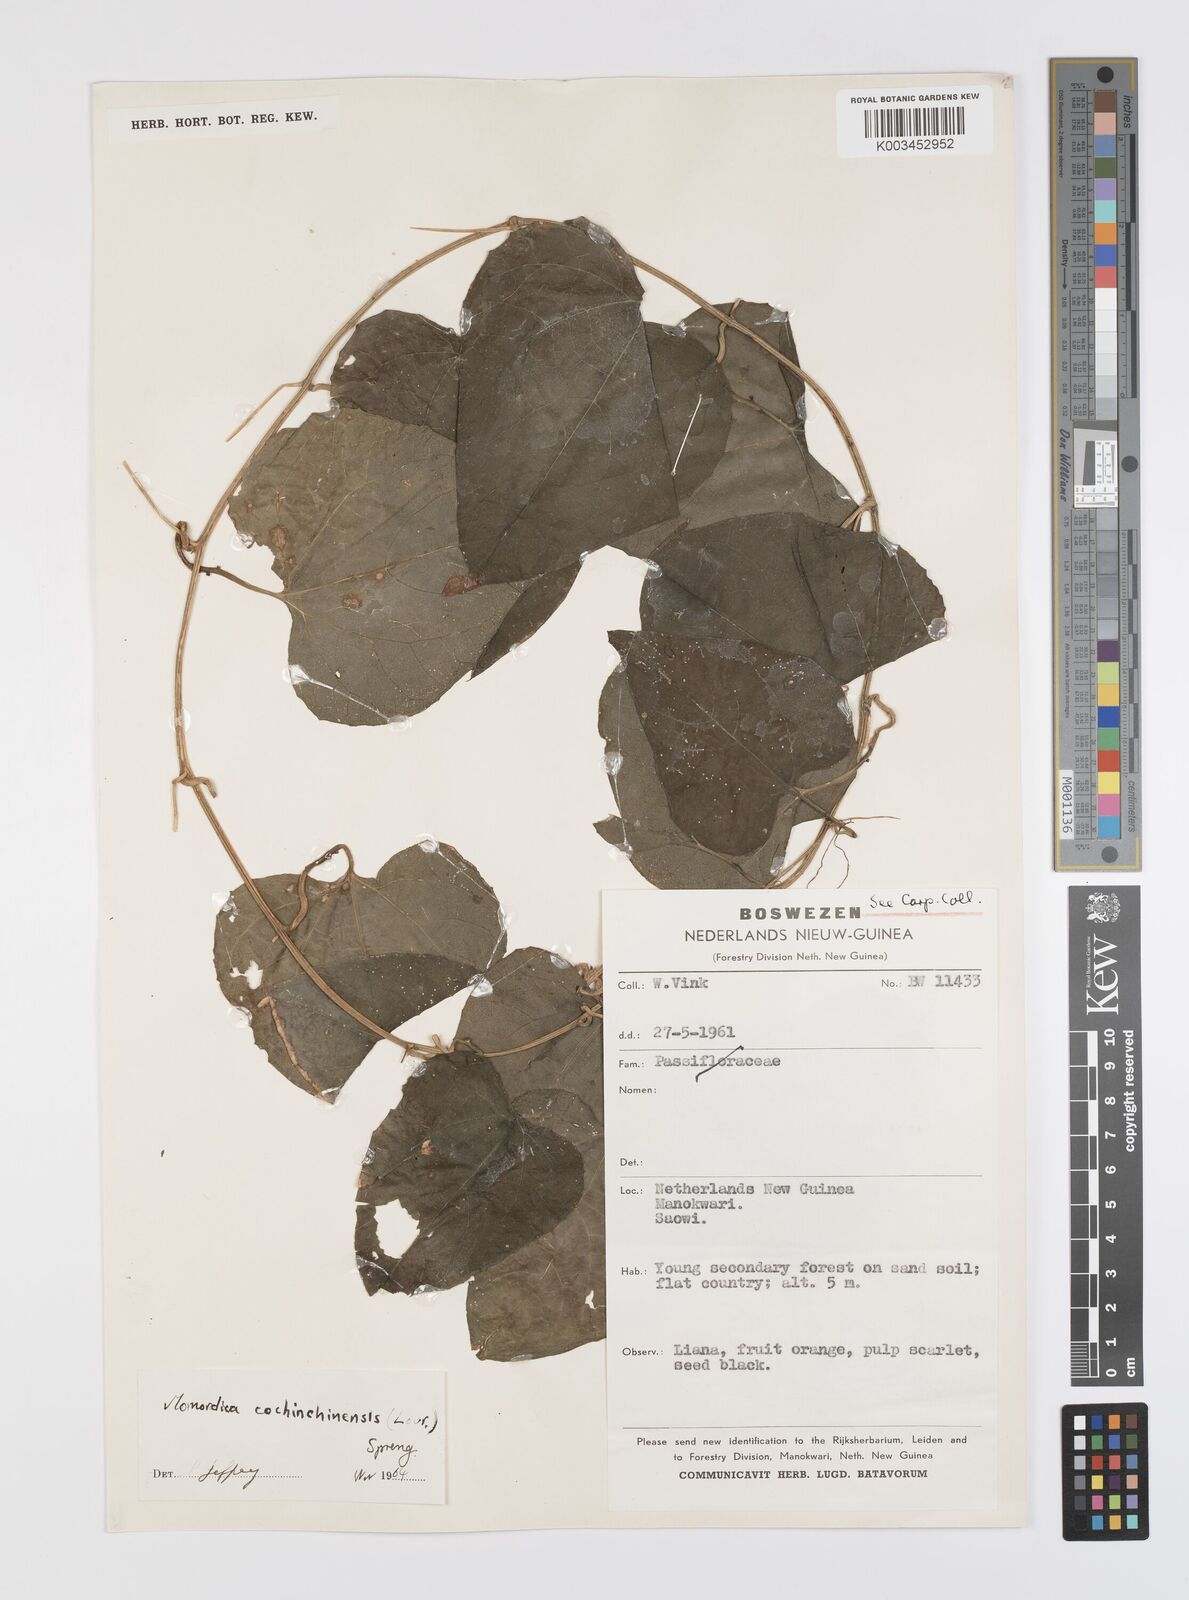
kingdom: Plantae
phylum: Tracheophyta
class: Magnoliopsida
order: Cucurbitales
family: Cucurbitaceae
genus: Momordica
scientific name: Momordica cochinchinensis
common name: Chinese bitter-cucumber
